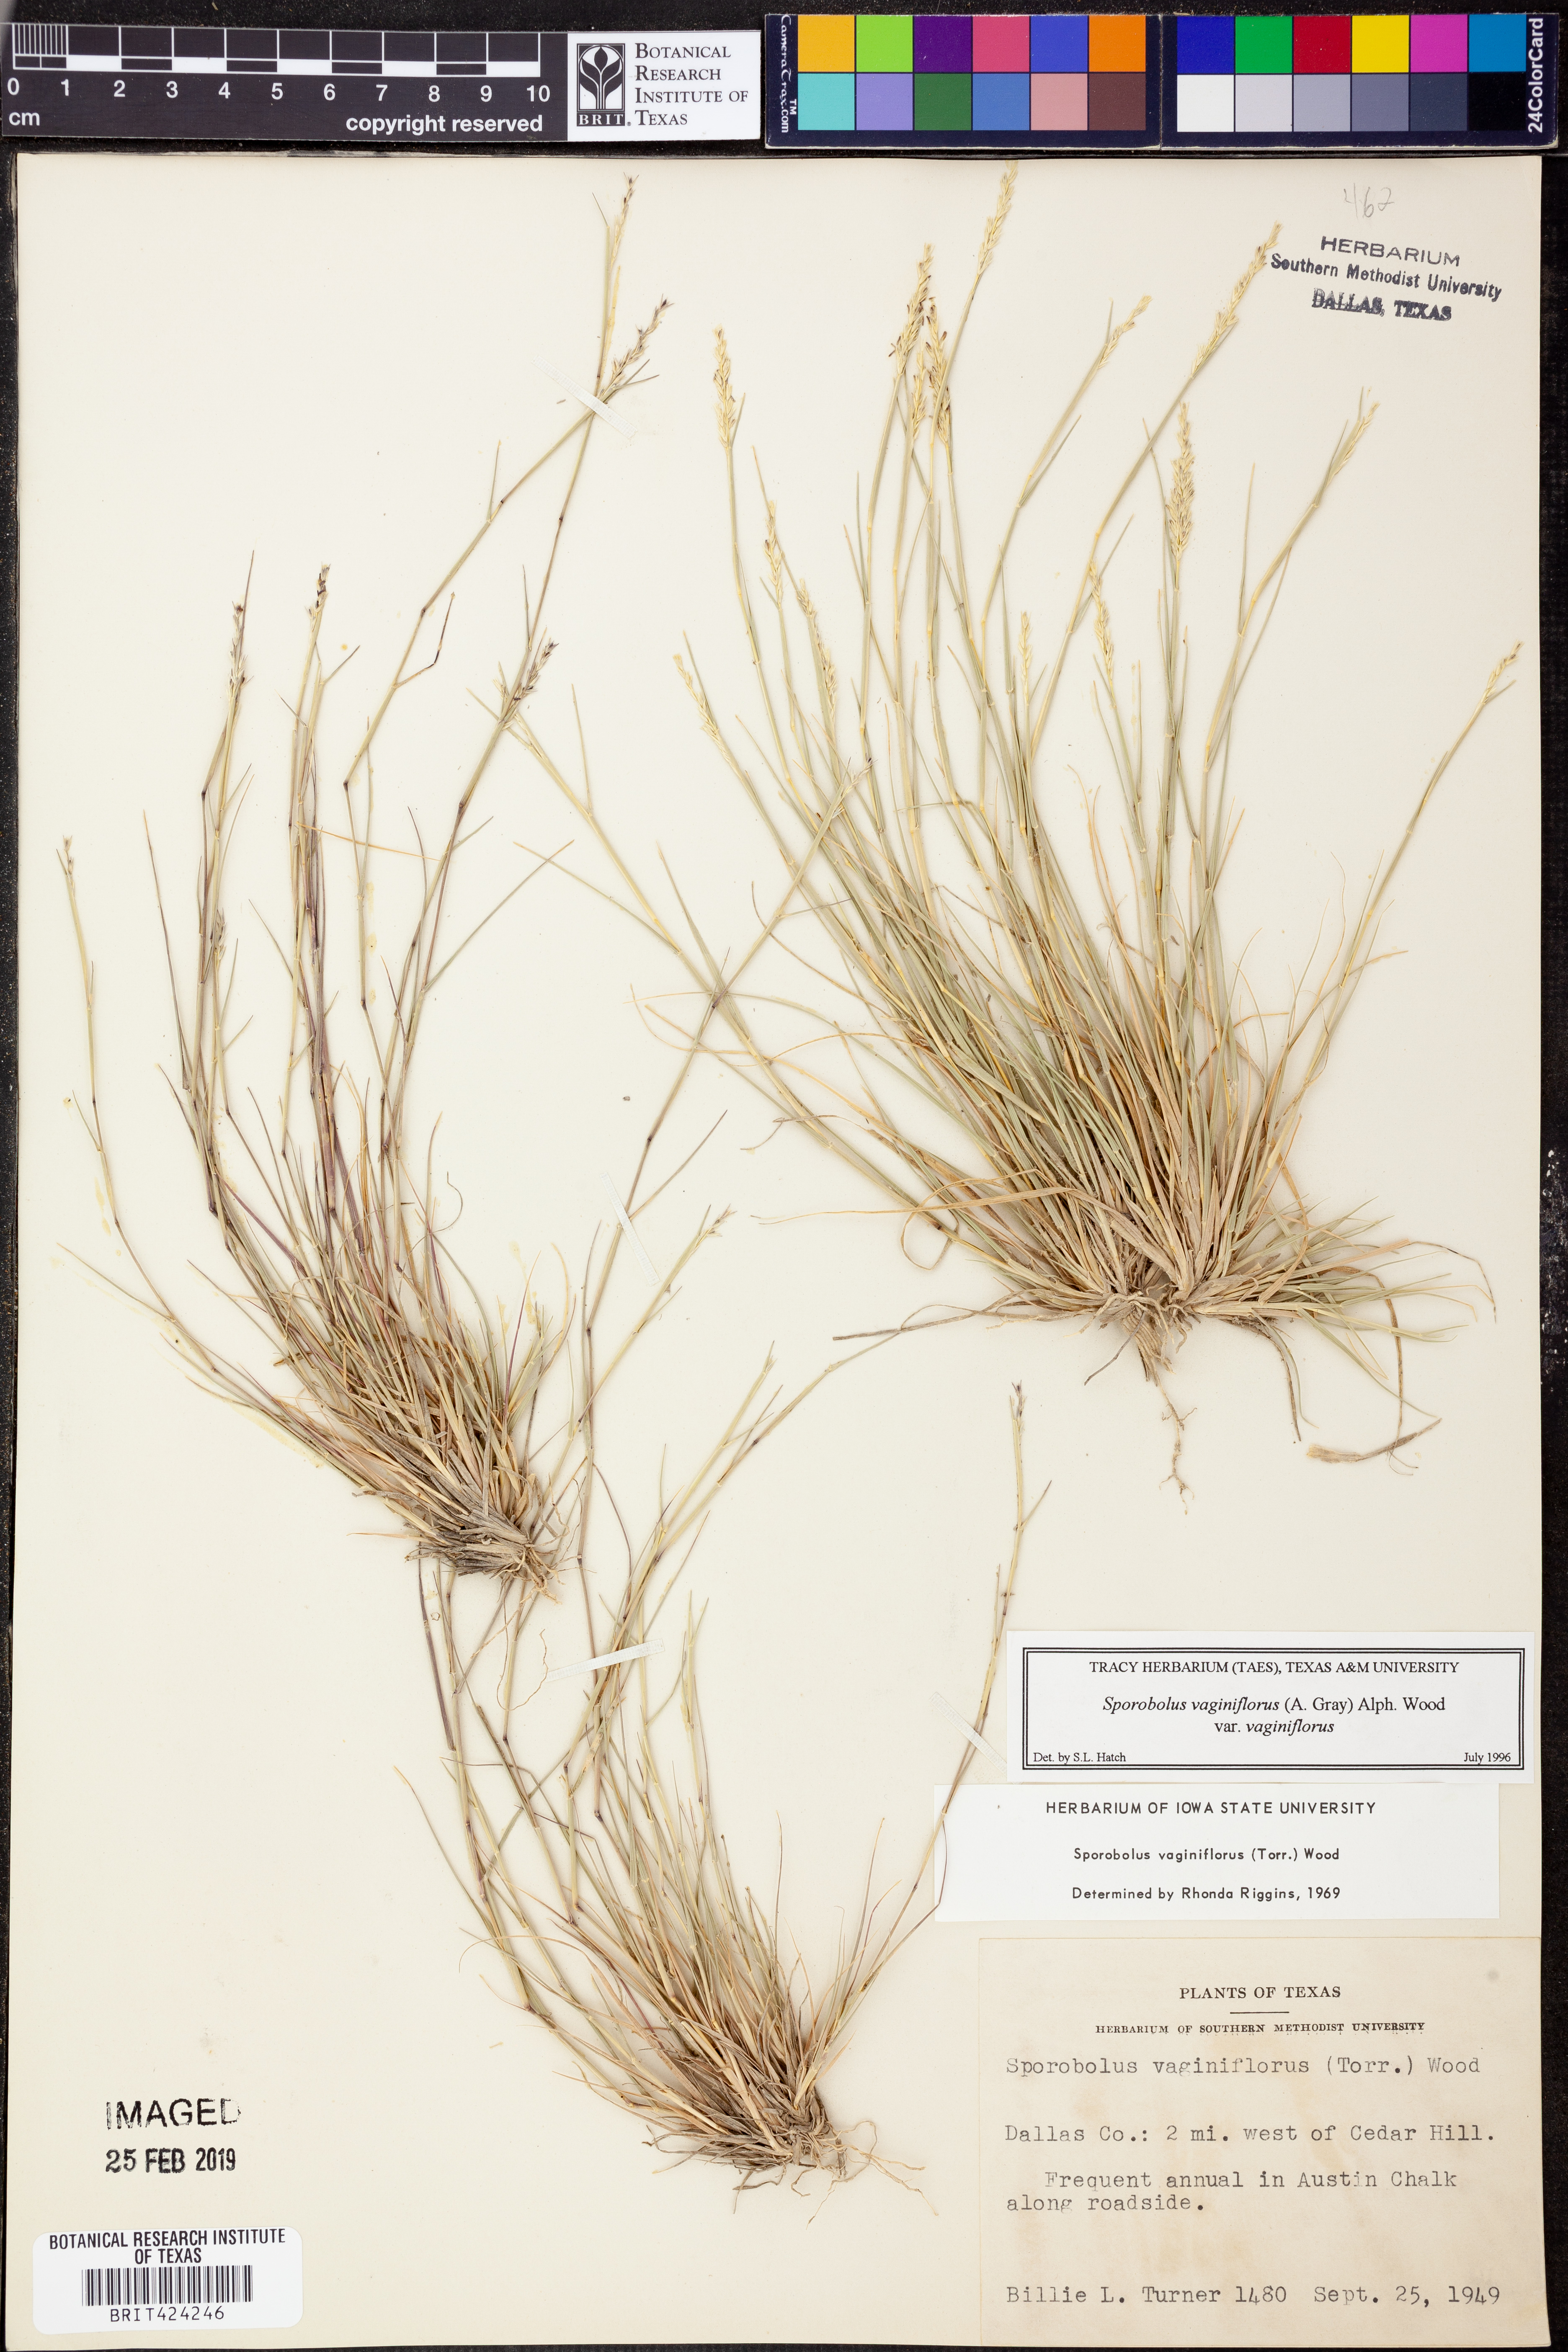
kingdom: Plantae
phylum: Tracheophyta
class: Liliopsida
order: Poales
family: Poaceae
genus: Sporobolus
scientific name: Sporobolus vaginiflorus
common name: Poverty dropseed
